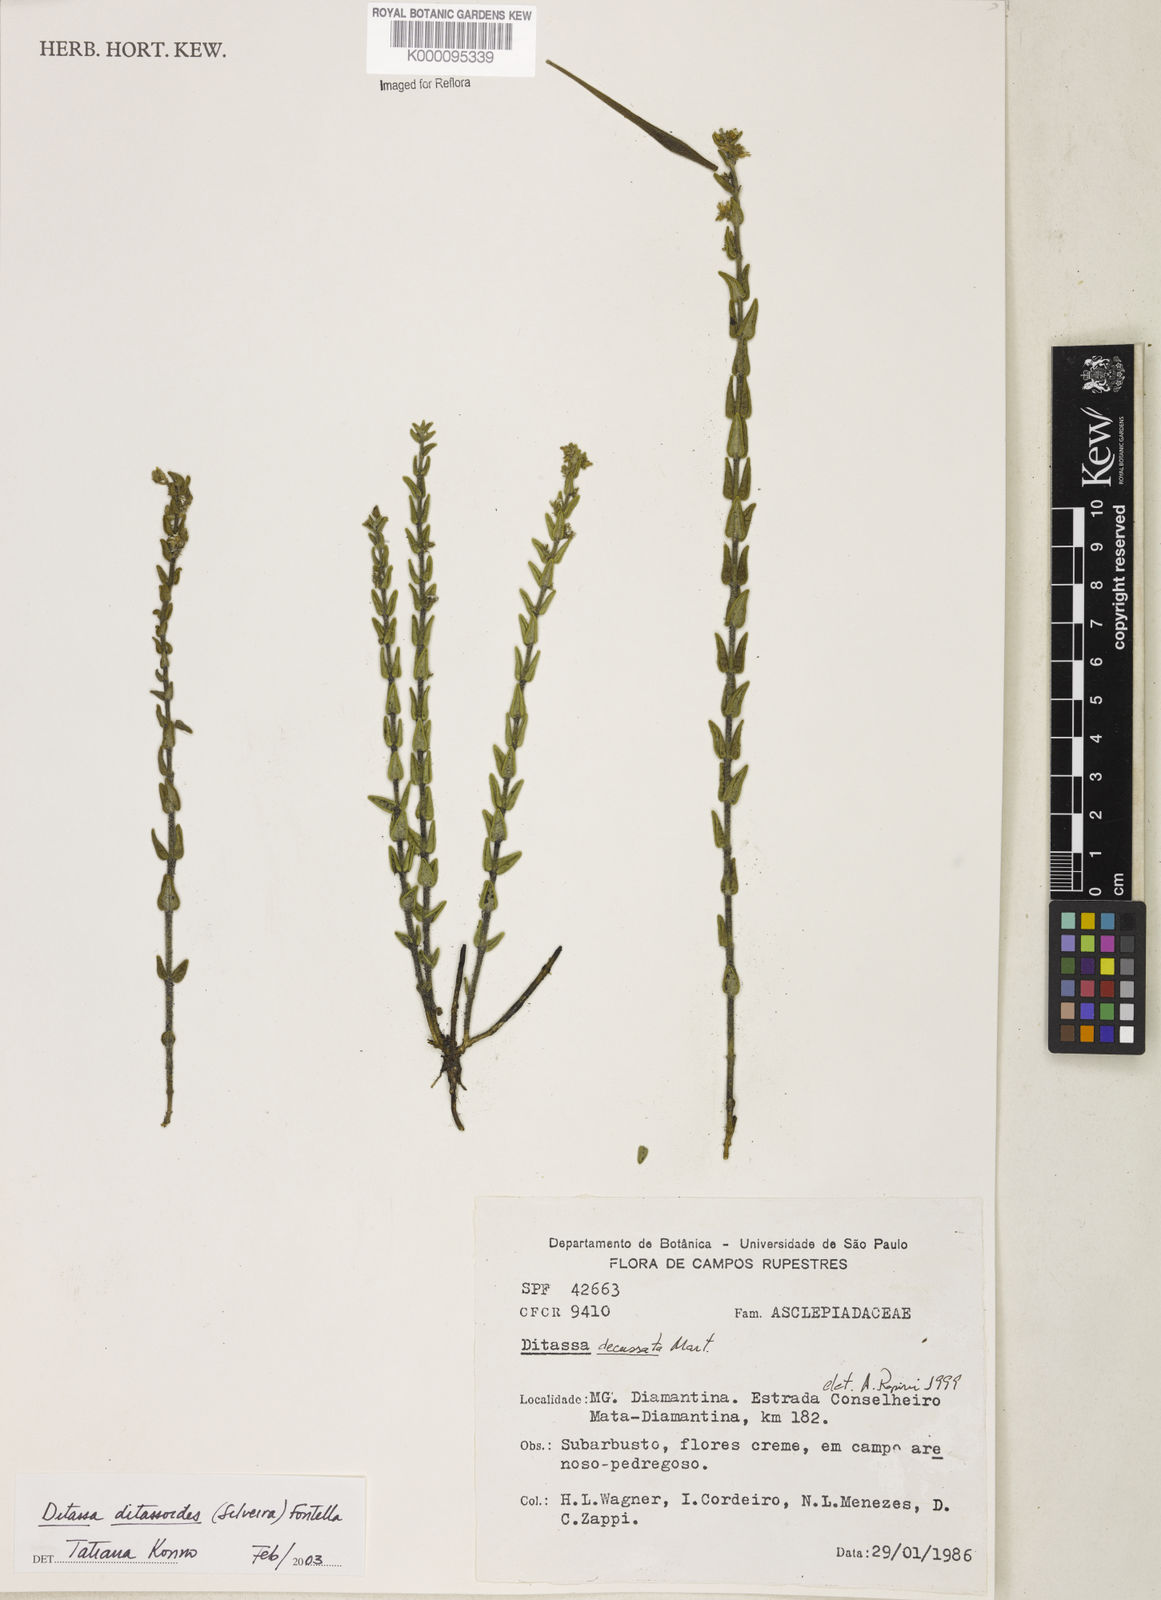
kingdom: Plantae
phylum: Tracheophyta
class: Magnoliopsida
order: Gentianales
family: Apocynaceae
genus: Minaria
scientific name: Minaria decussata
